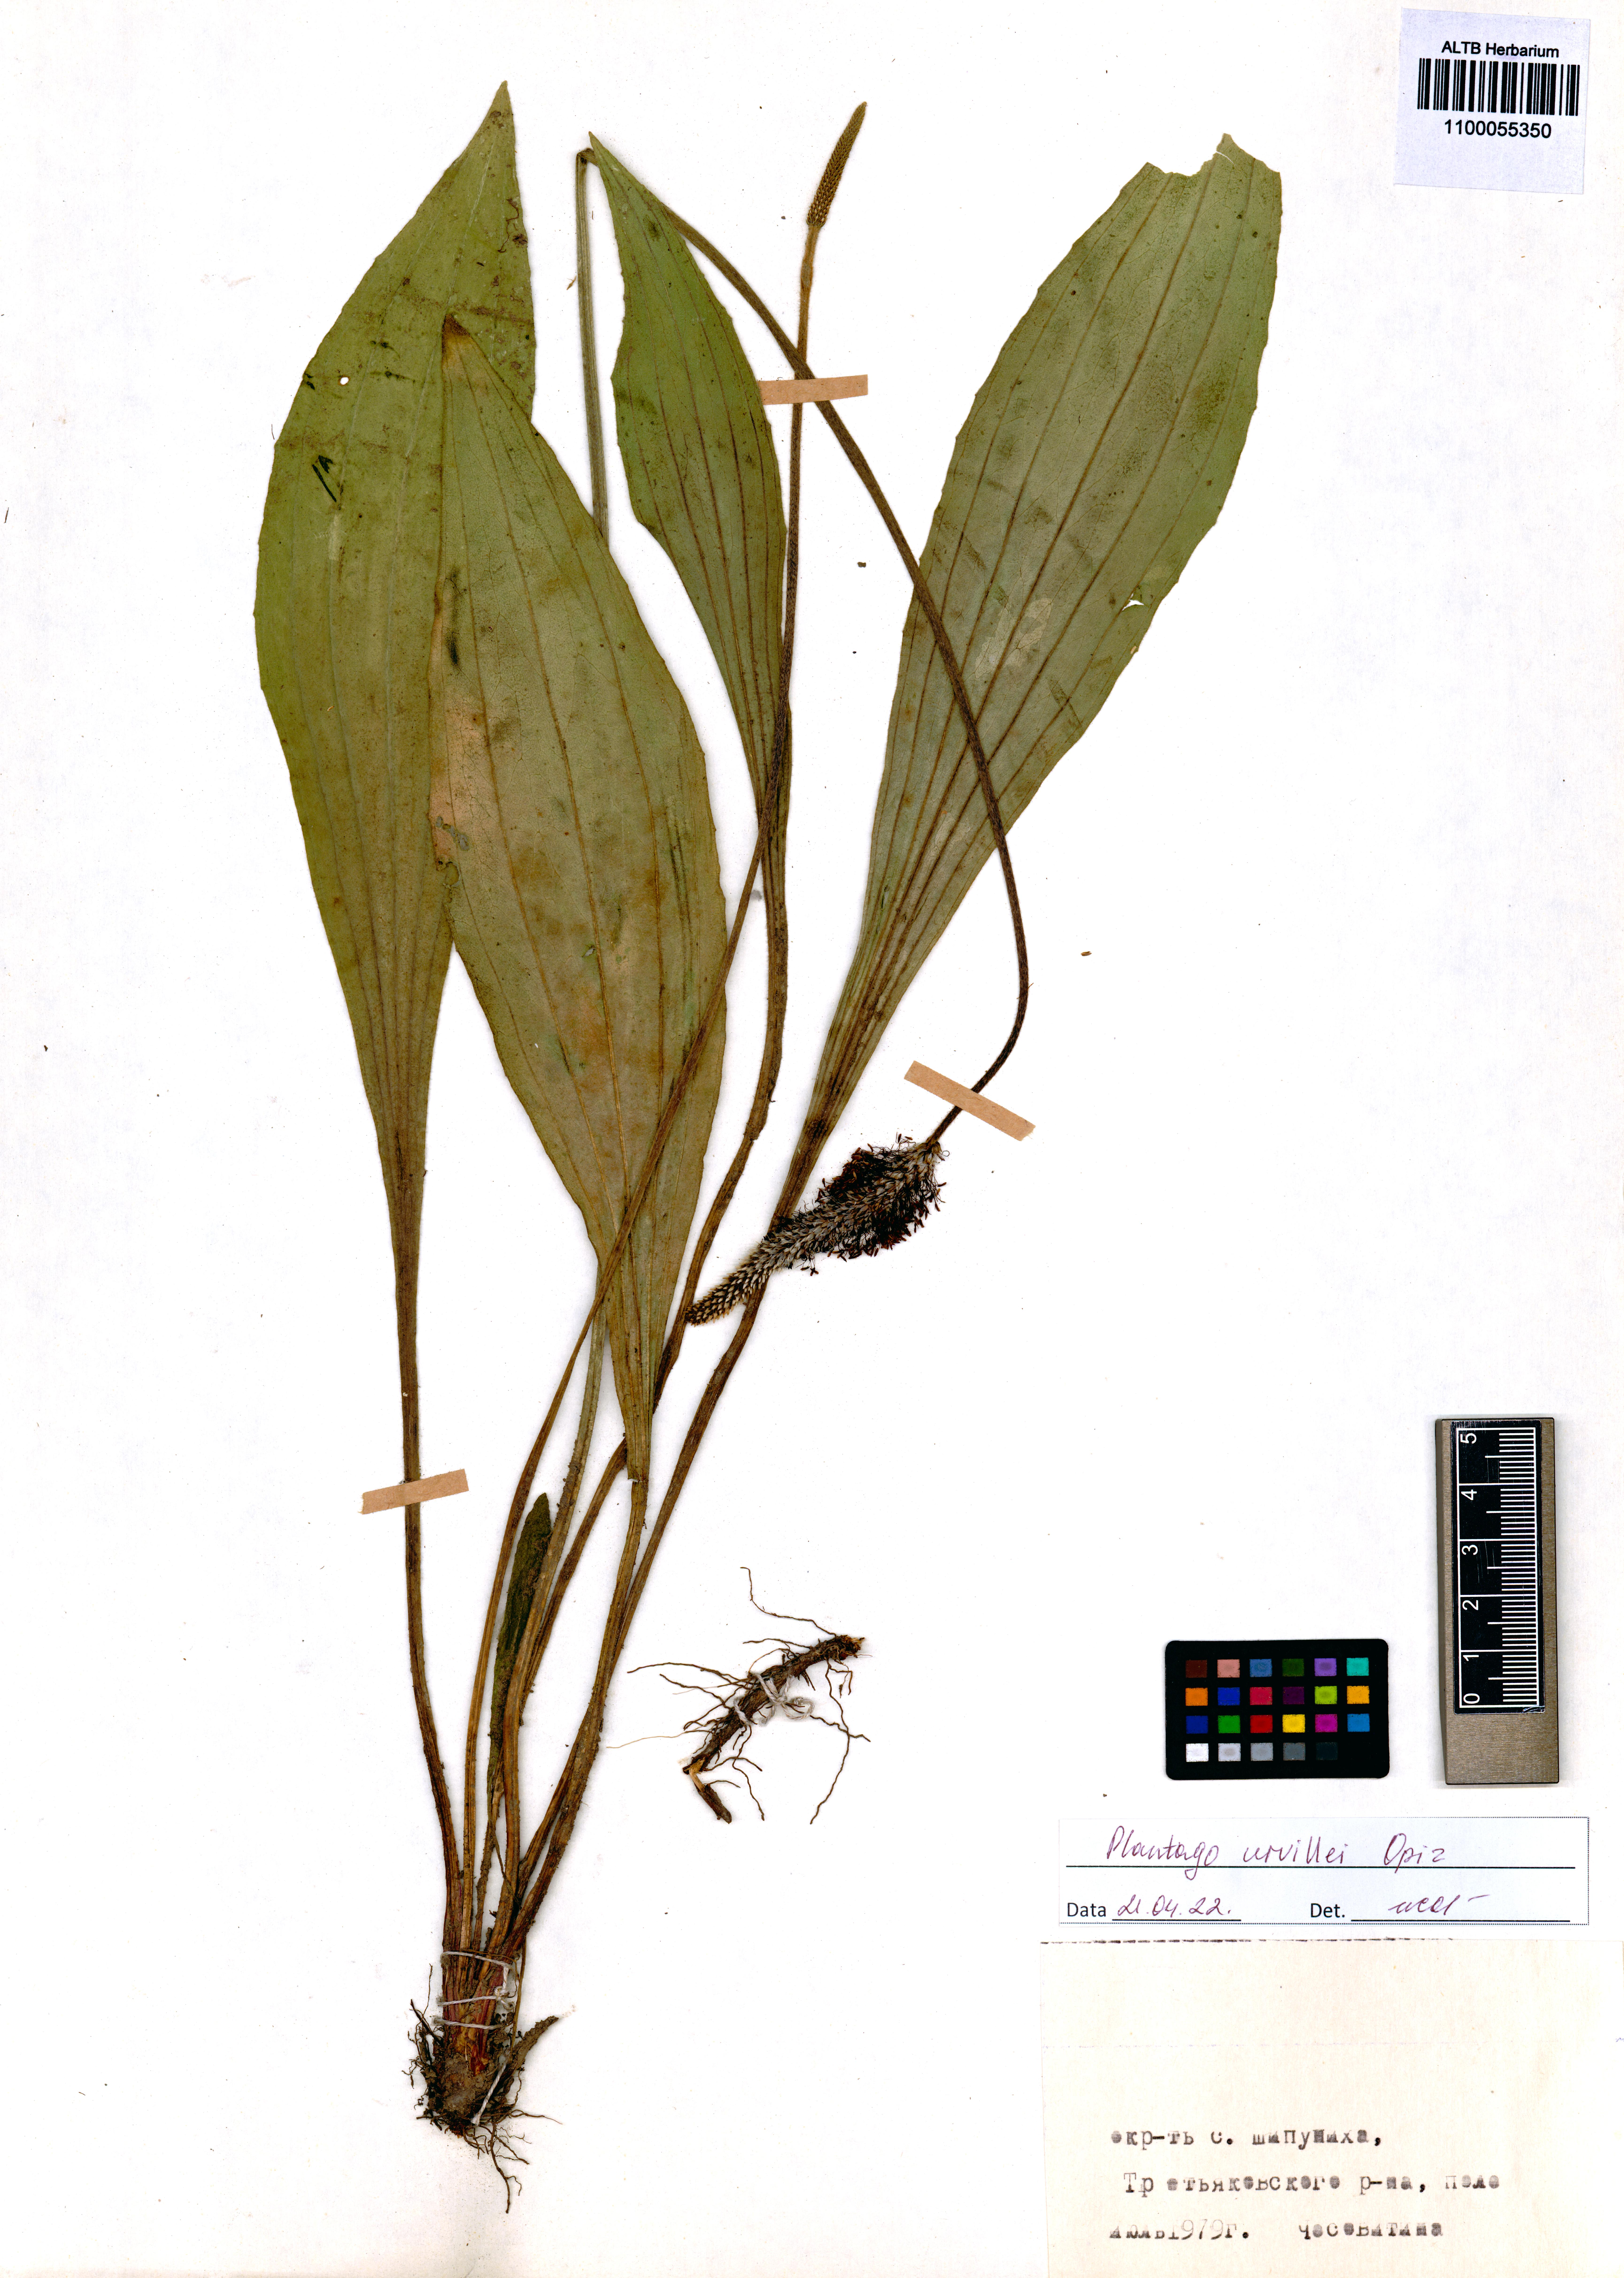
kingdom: Plantae
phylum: Tracheophyta
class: Magnoliopsida
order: Lamiales
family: Plantaginaceae
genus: Plantago
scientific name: Plantago urvillei
